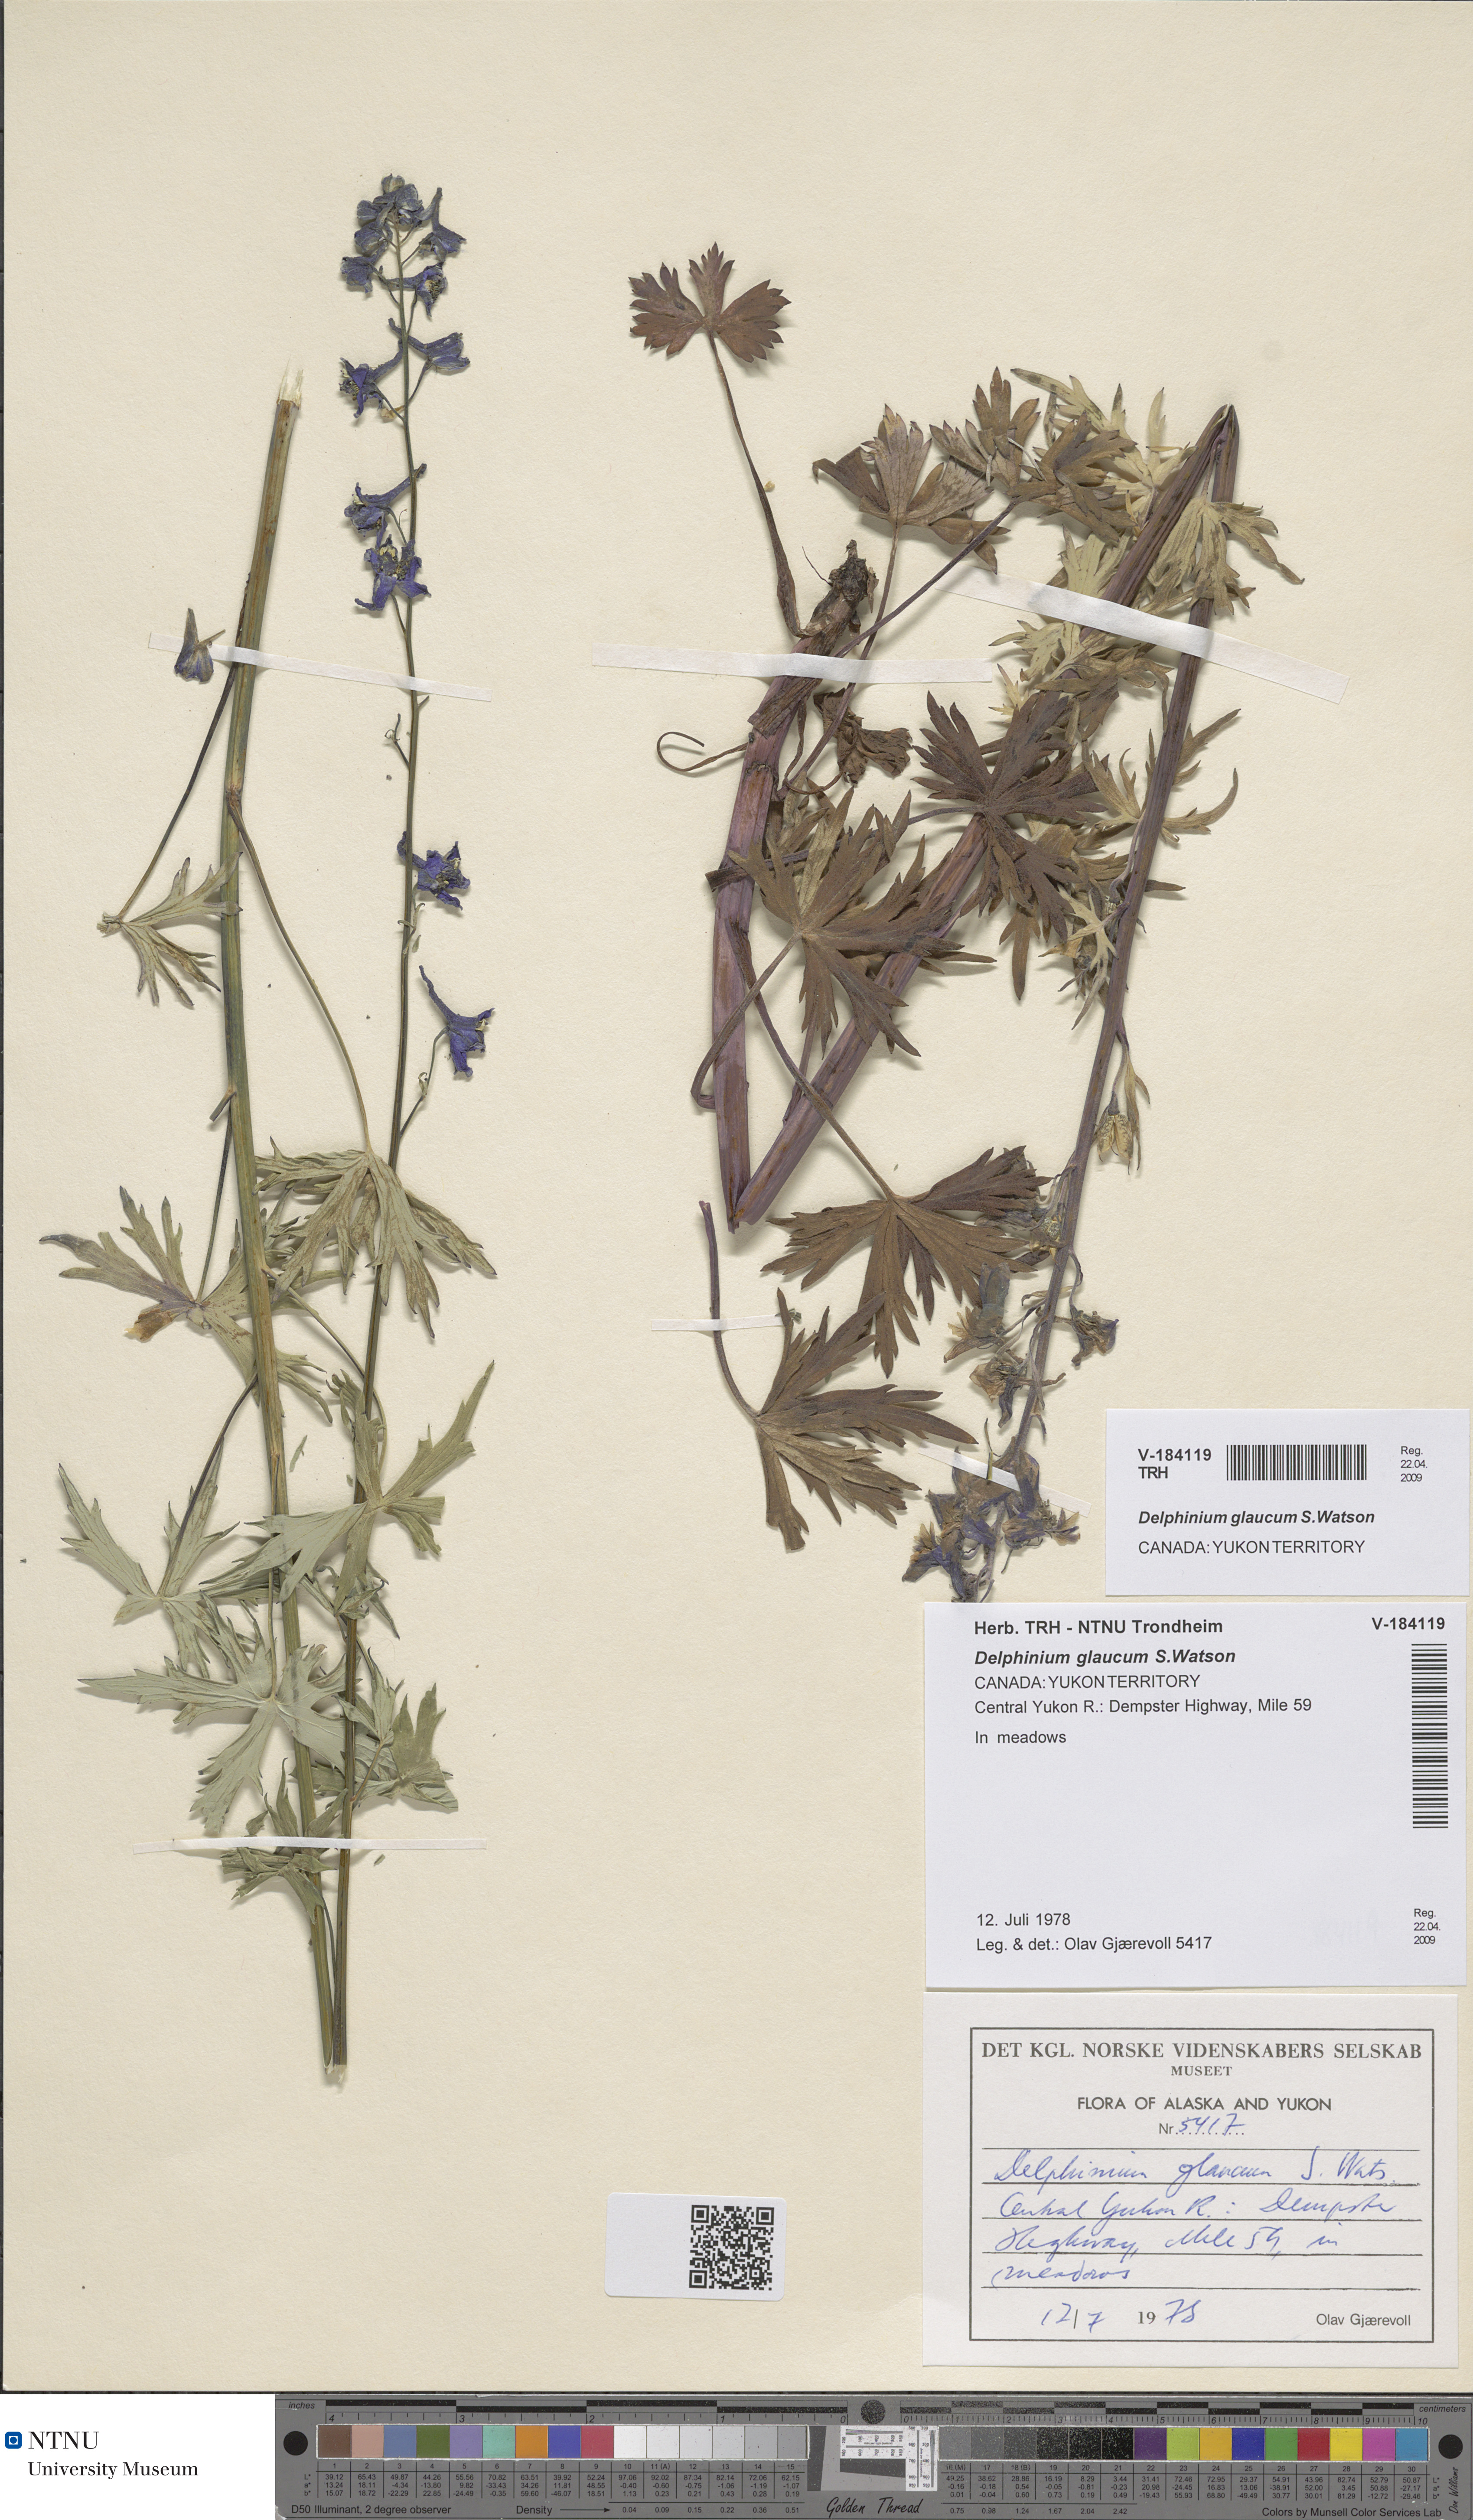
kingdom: Plantae
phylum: Tracheophyta
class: Magnoliopsida
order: Ranunculales
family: Ranunculaceae
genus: Delphinium
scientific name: Delphinium glaucum
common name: Brown's larkspur
